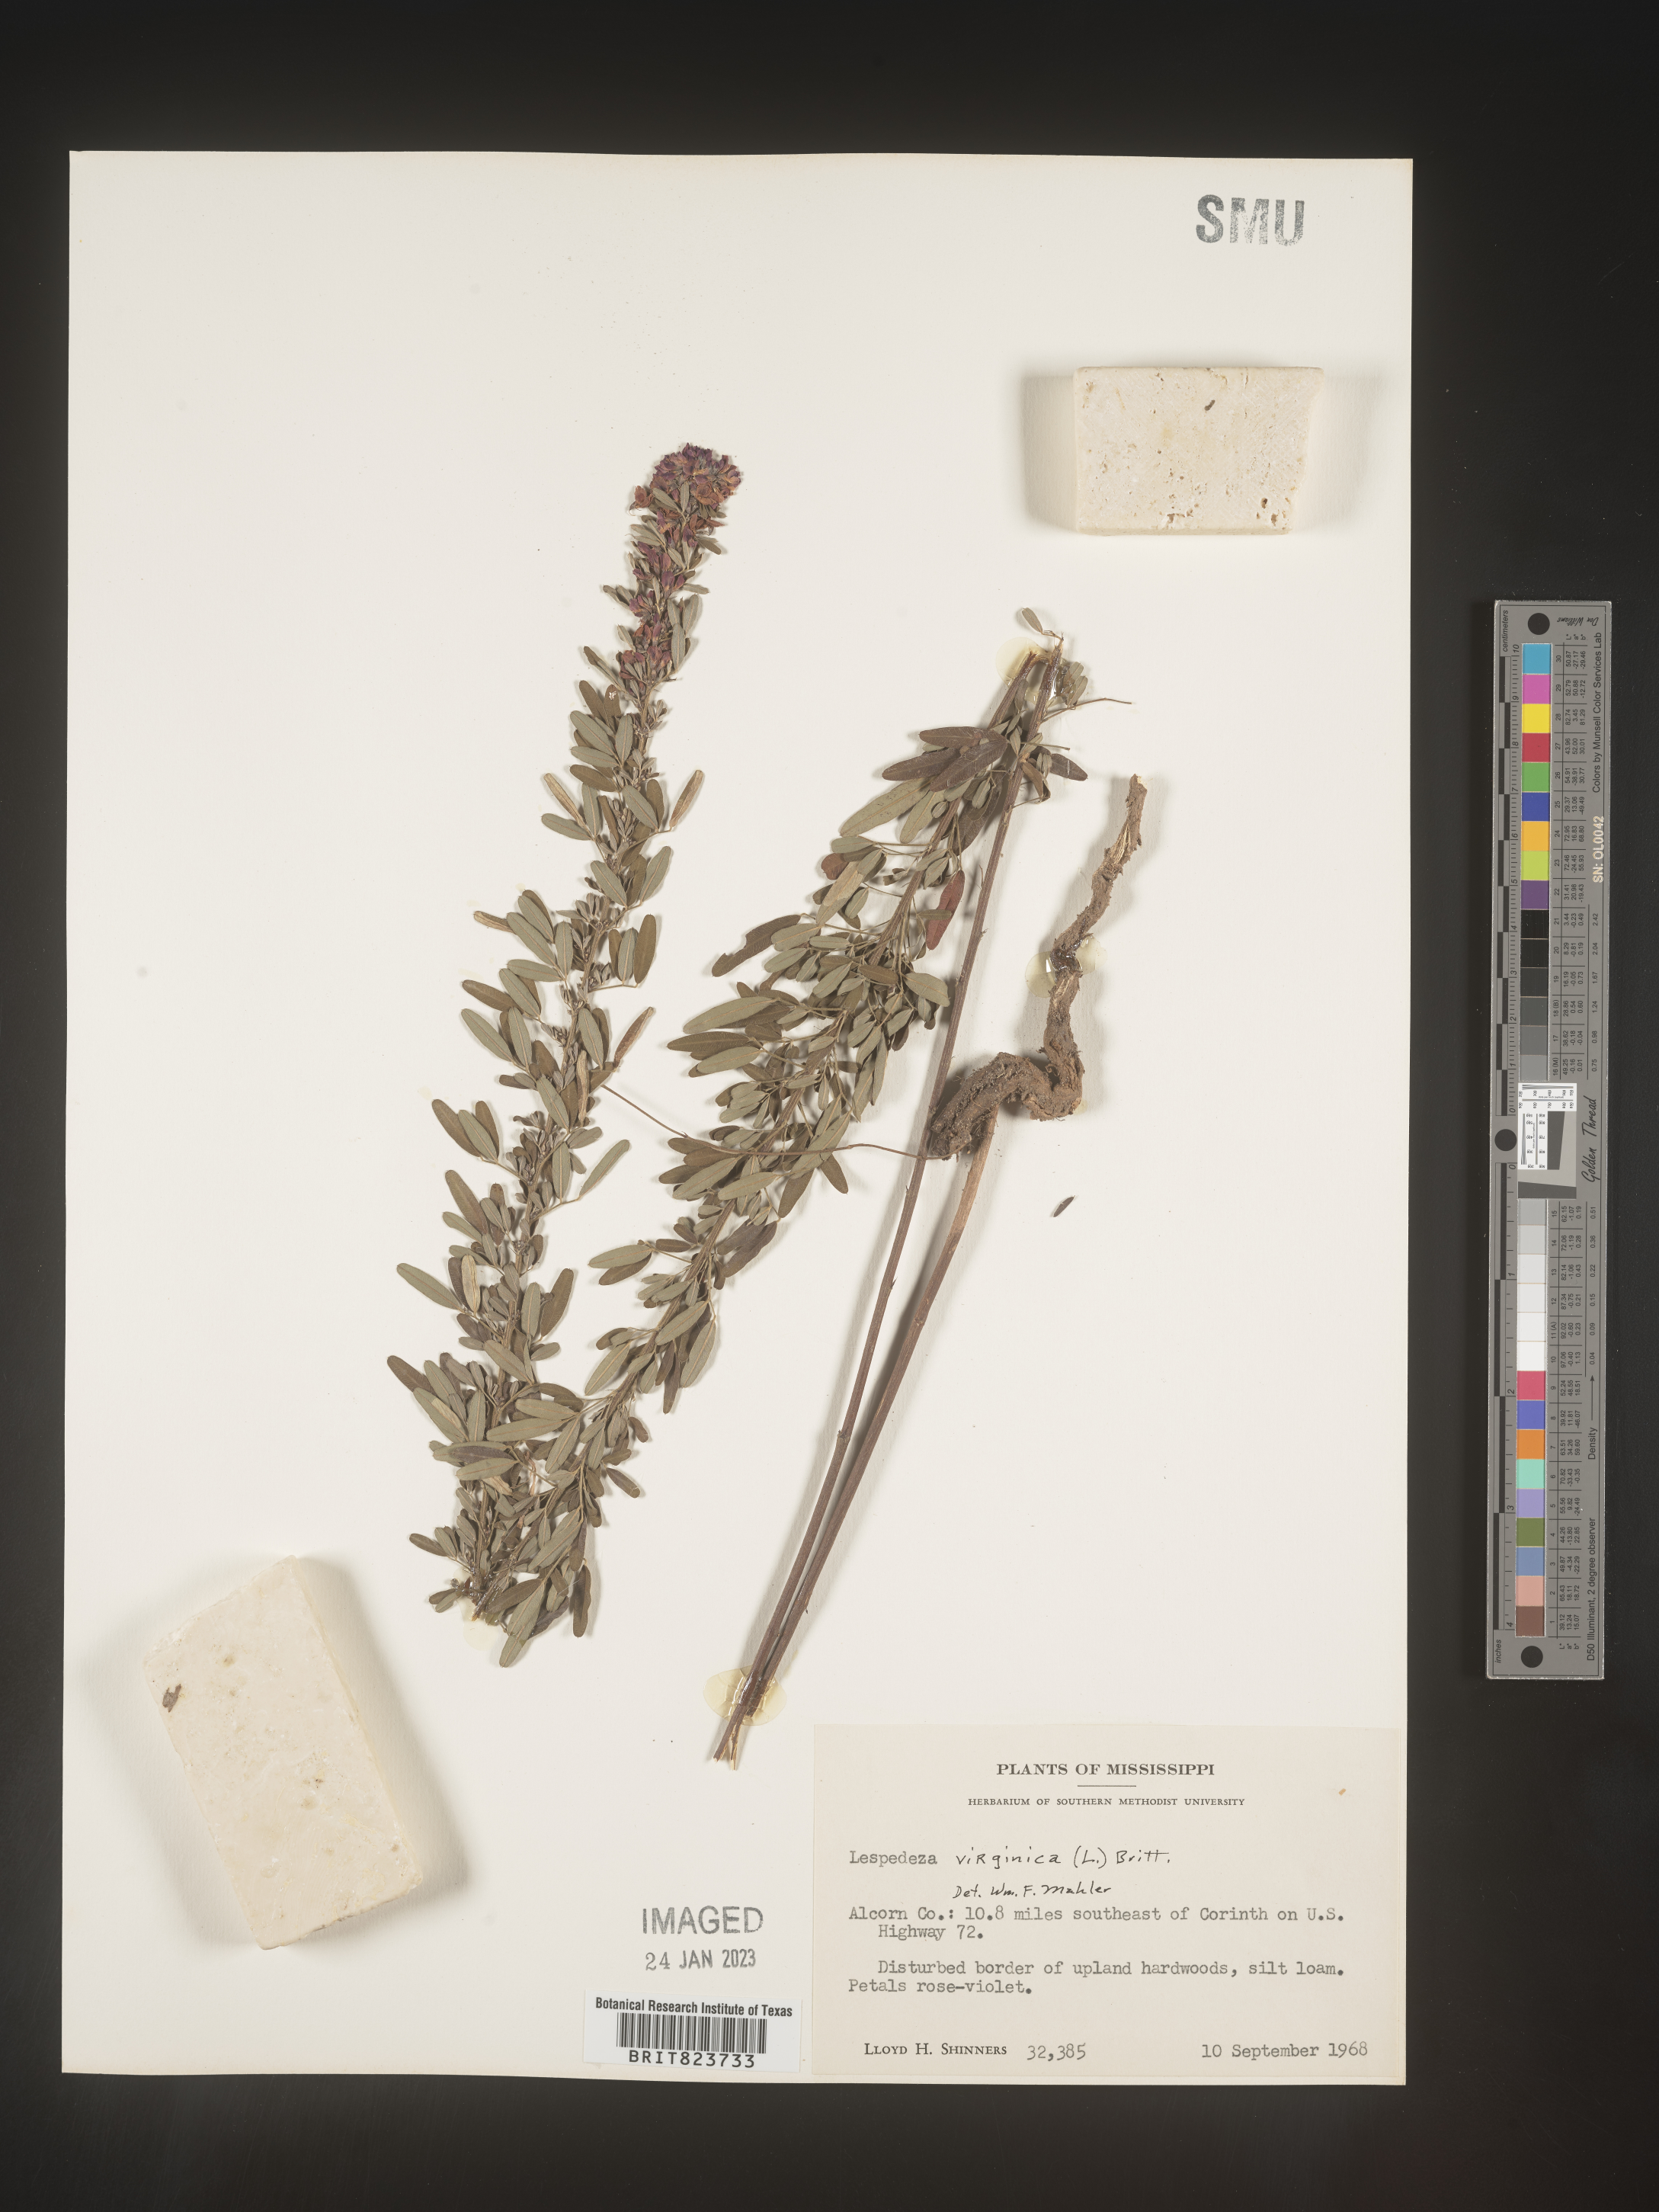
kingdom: Plantae
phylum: Tracheophyta
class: Magnoliopsida
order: Fabales
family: Fabaceae
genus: Lespedeza
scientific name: Lespedeza virginica
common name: Slender bush-clover
